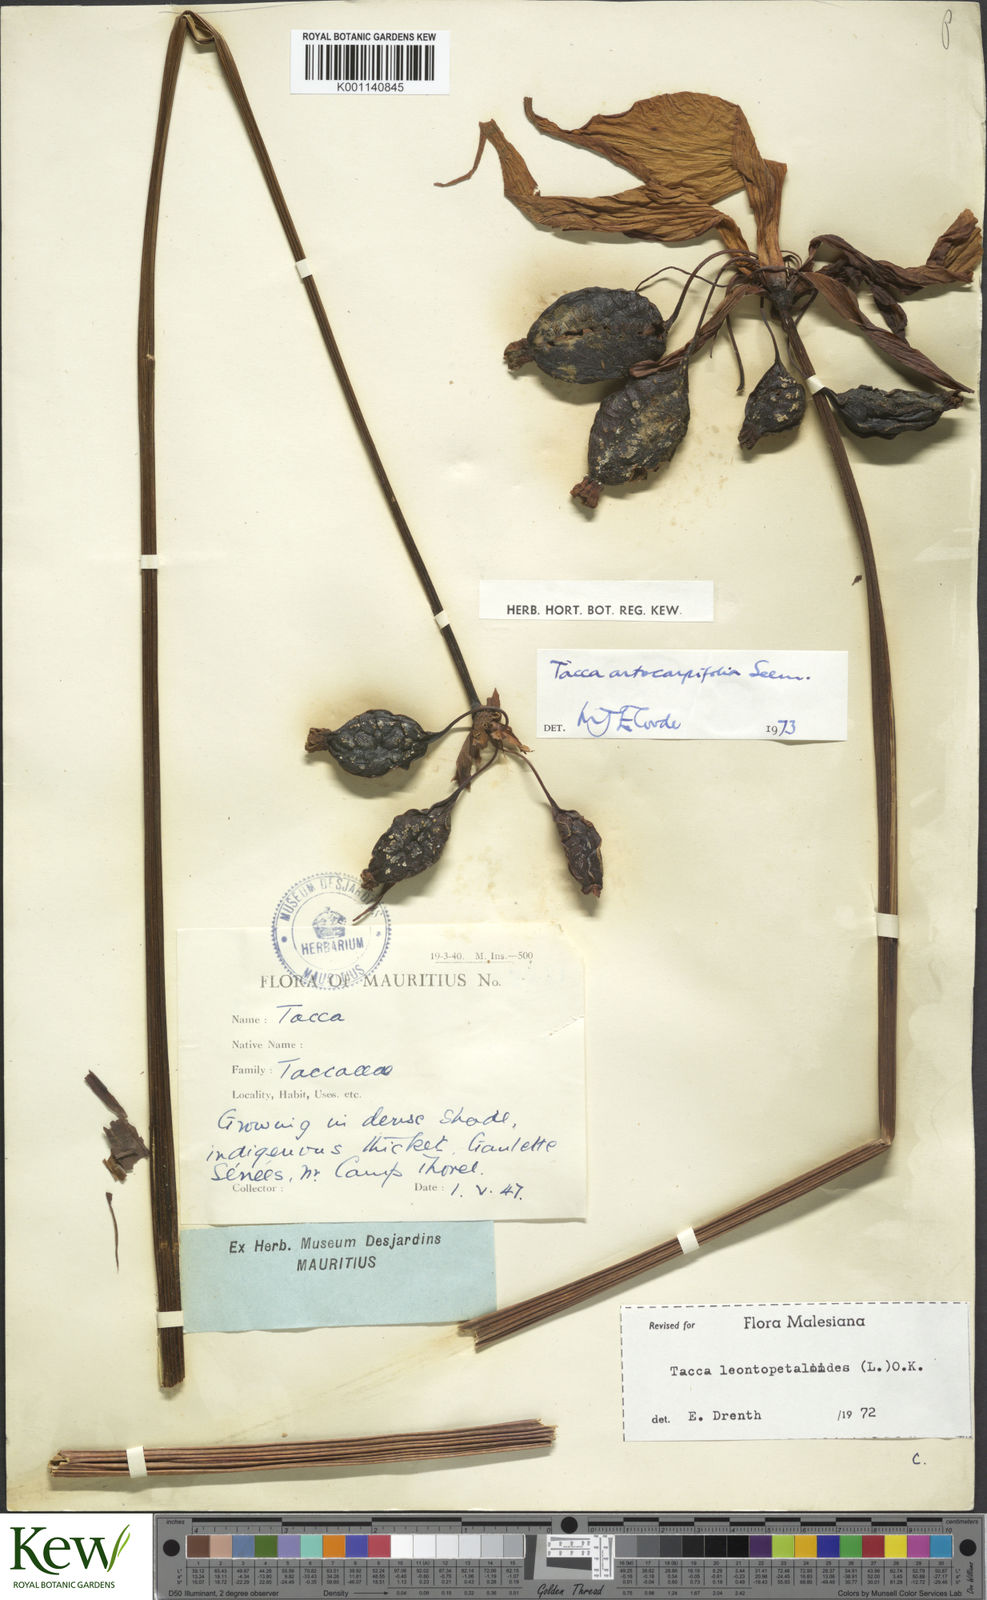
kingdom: Plantae
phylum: Tracheophyta
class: Liliopsida
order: Dioscoreales
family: Dioscoreaceae
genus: Tacca
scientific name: Tacca leontopetaloides
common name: Arrowroot
